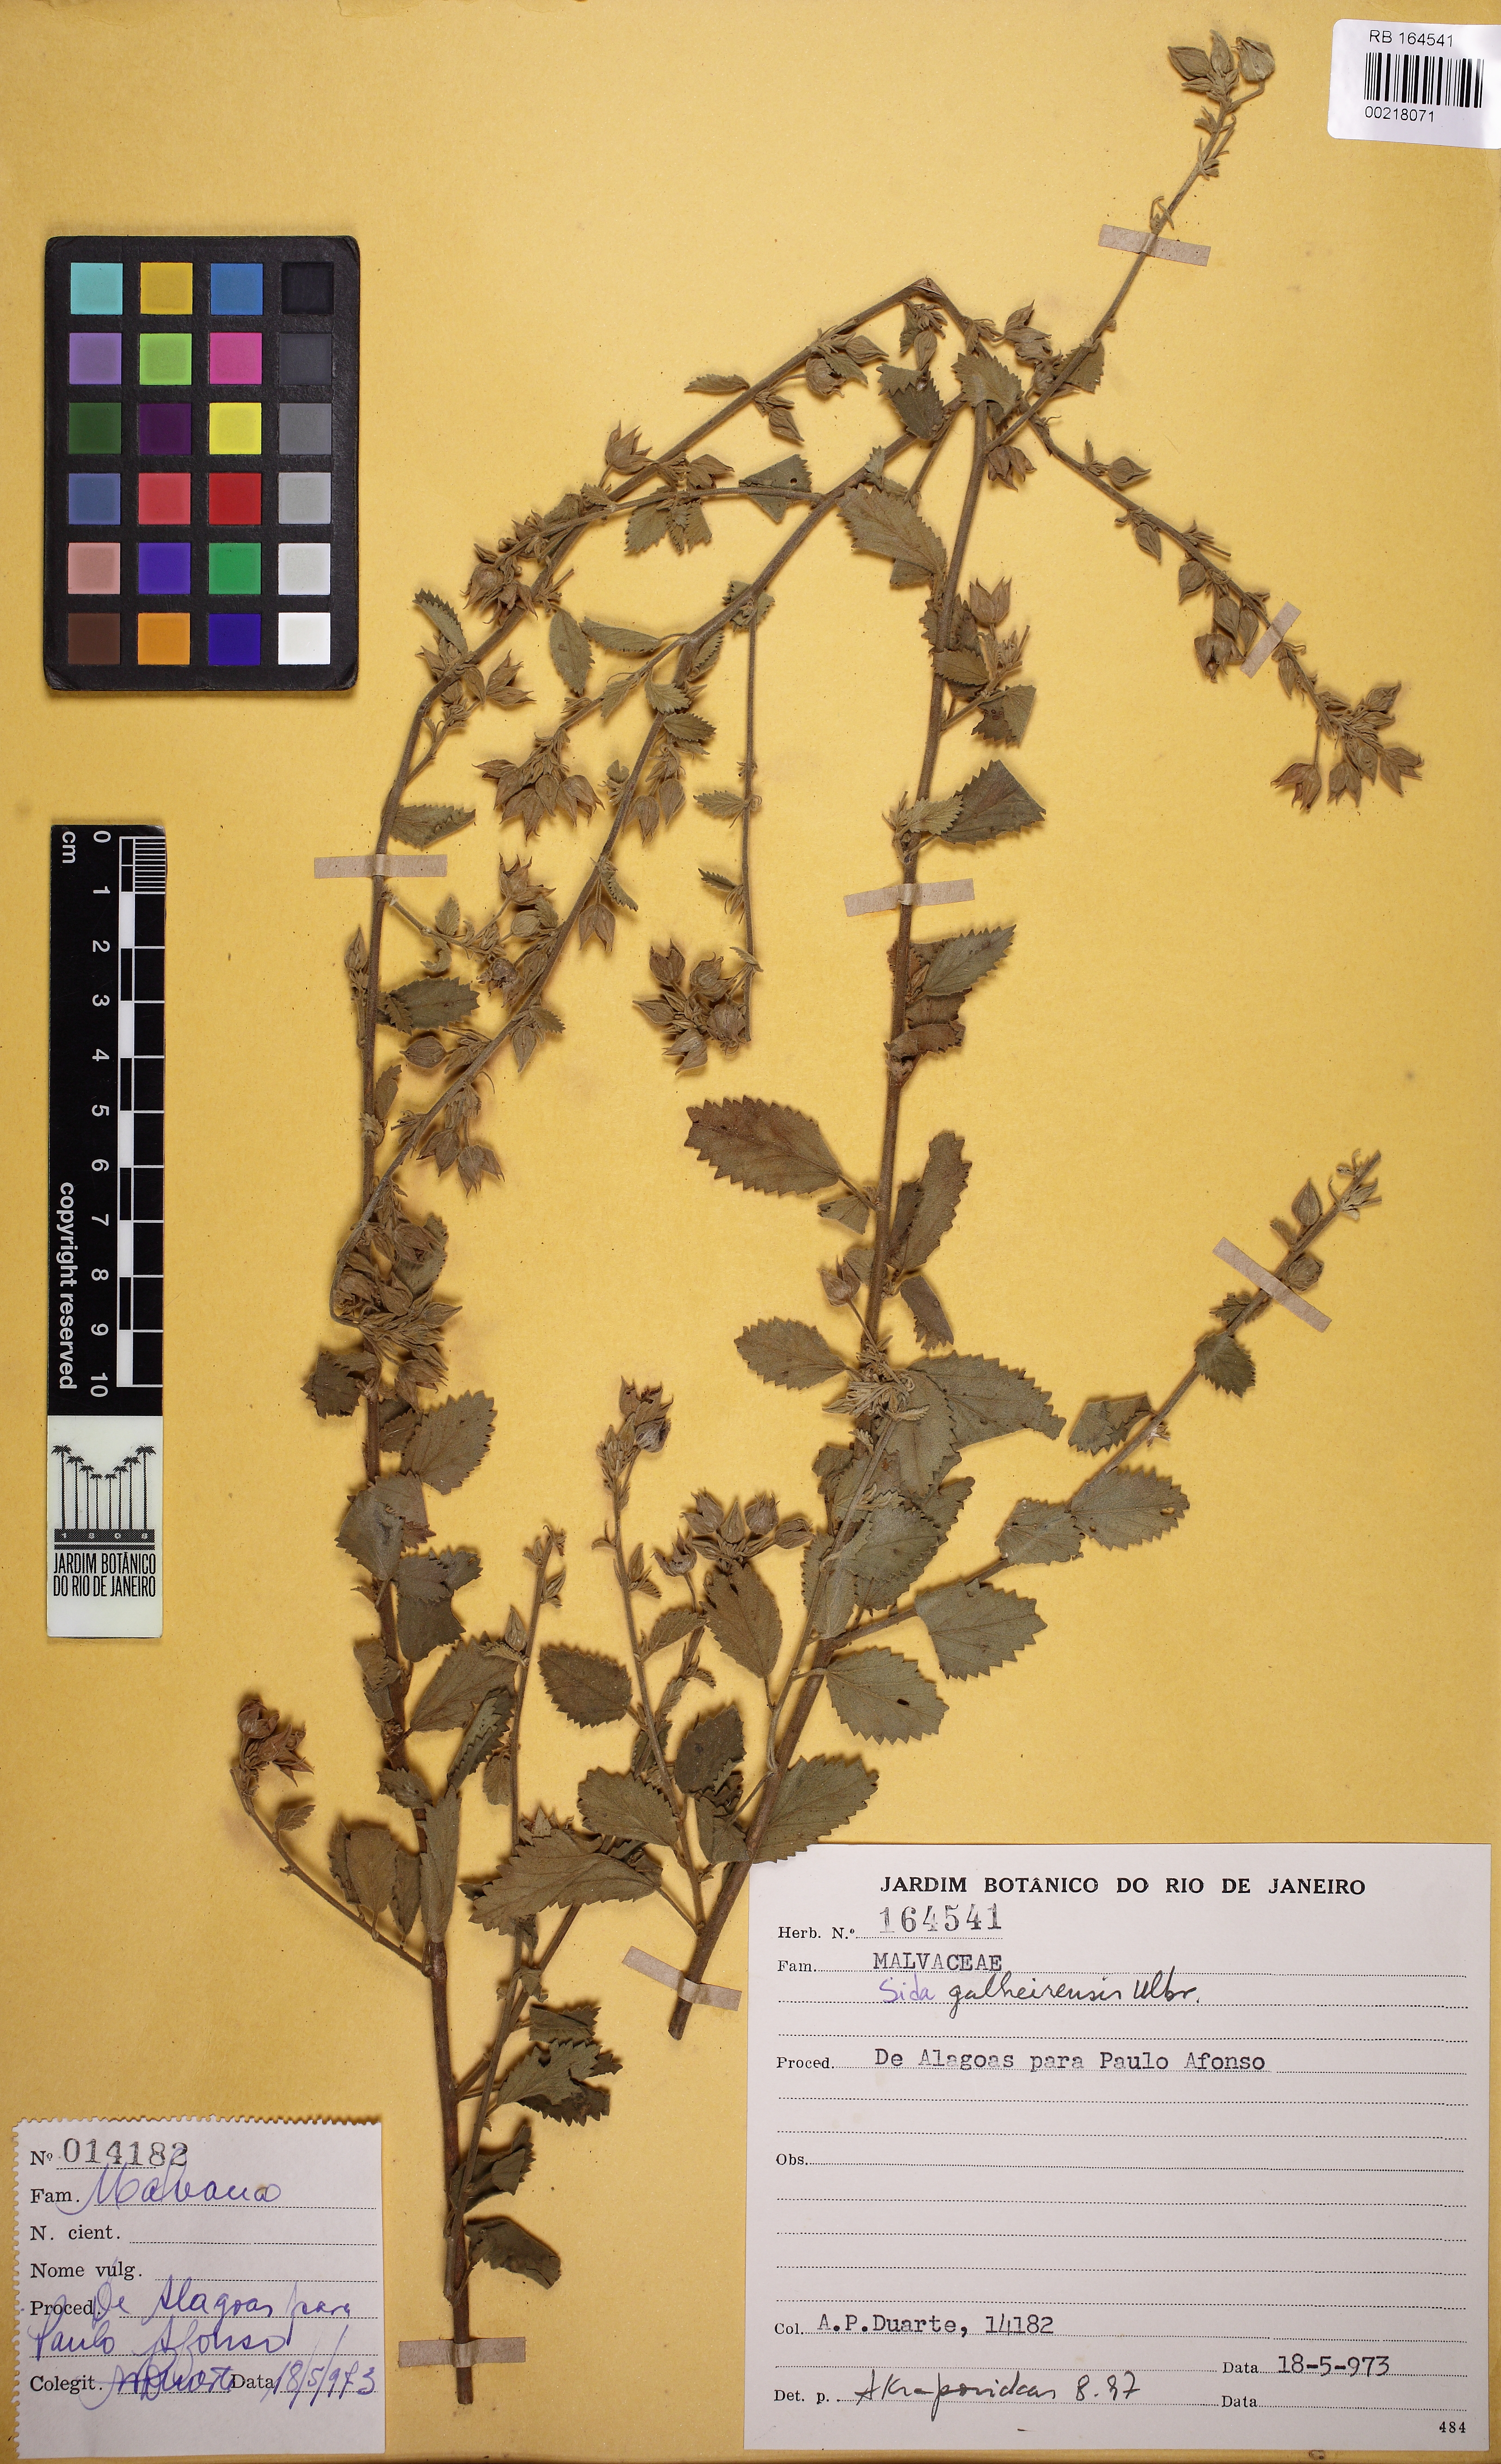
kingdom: Plantae
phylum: Tracheophyta
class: Magnoliopsida
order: Malvales
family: Malvaceae
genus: Sida
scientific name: Sida galheirensis
